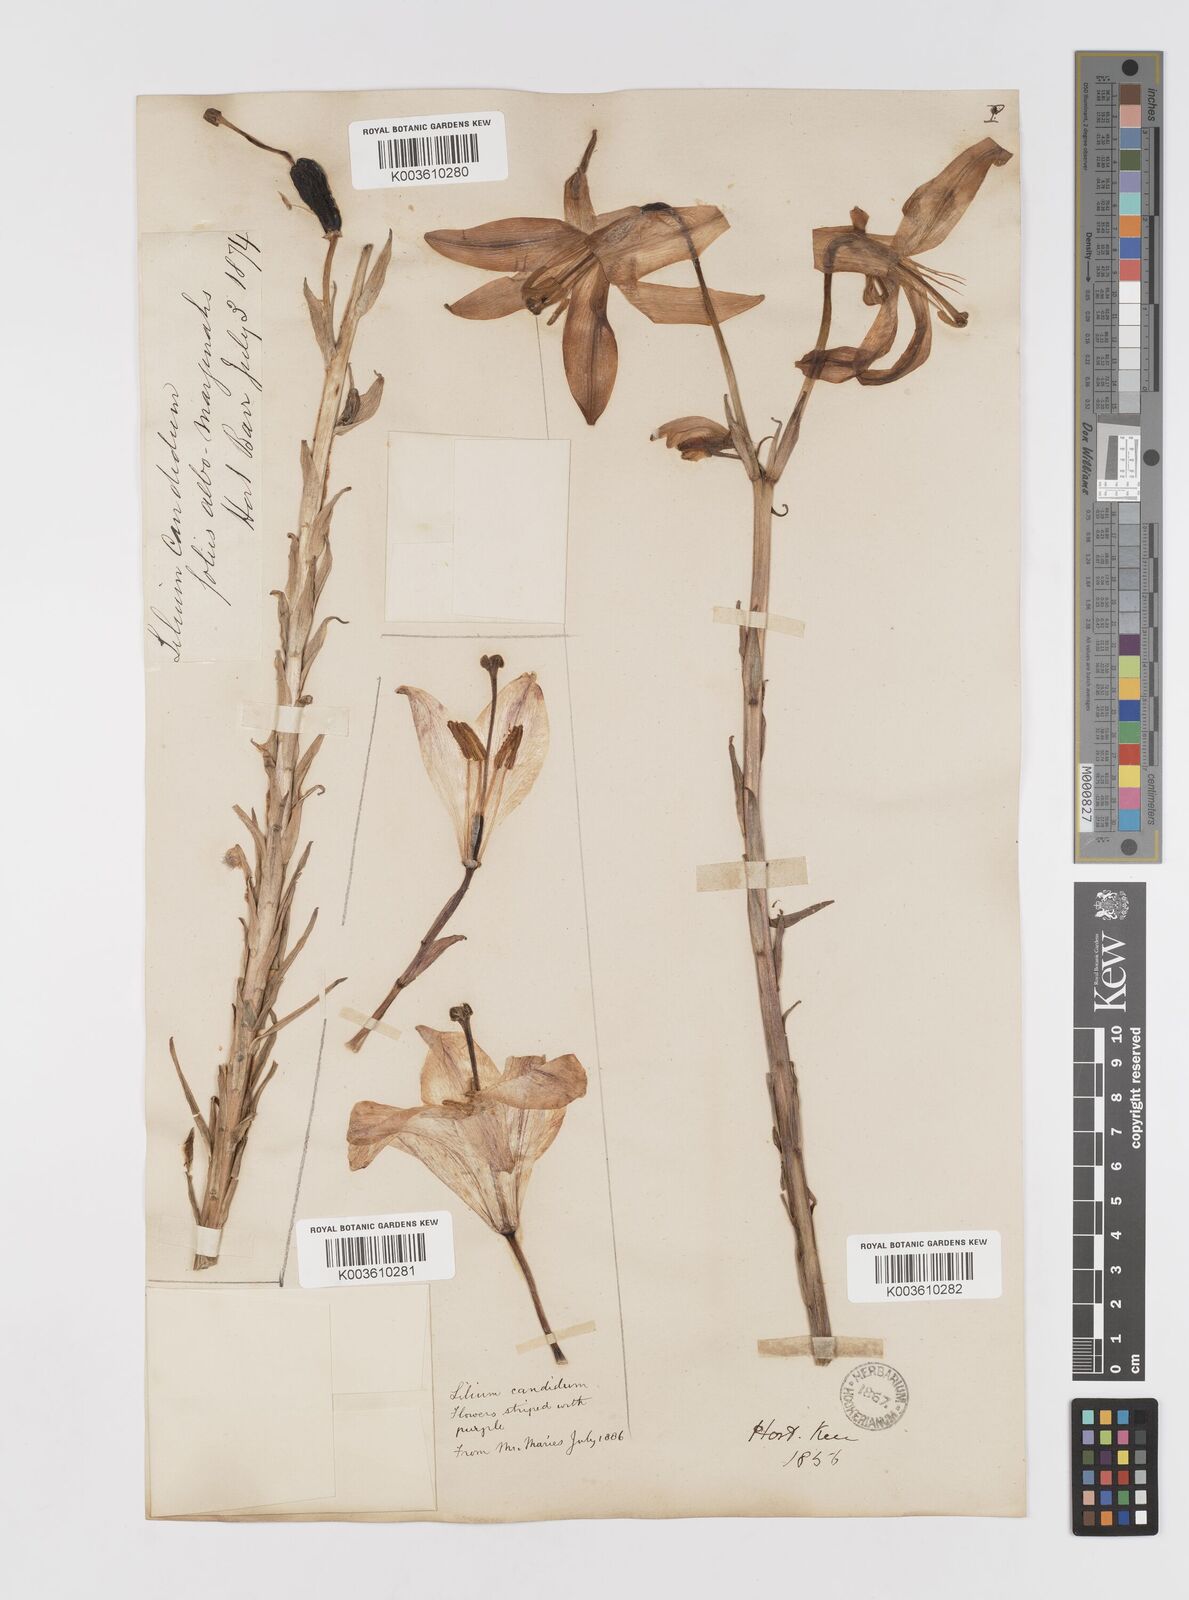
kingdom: Plantae
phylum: Tracheophyta
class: Liliopsida
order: Liliales
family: Liliaceae
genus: Lilium
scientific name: Lilium candidum
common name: Madonna lily
